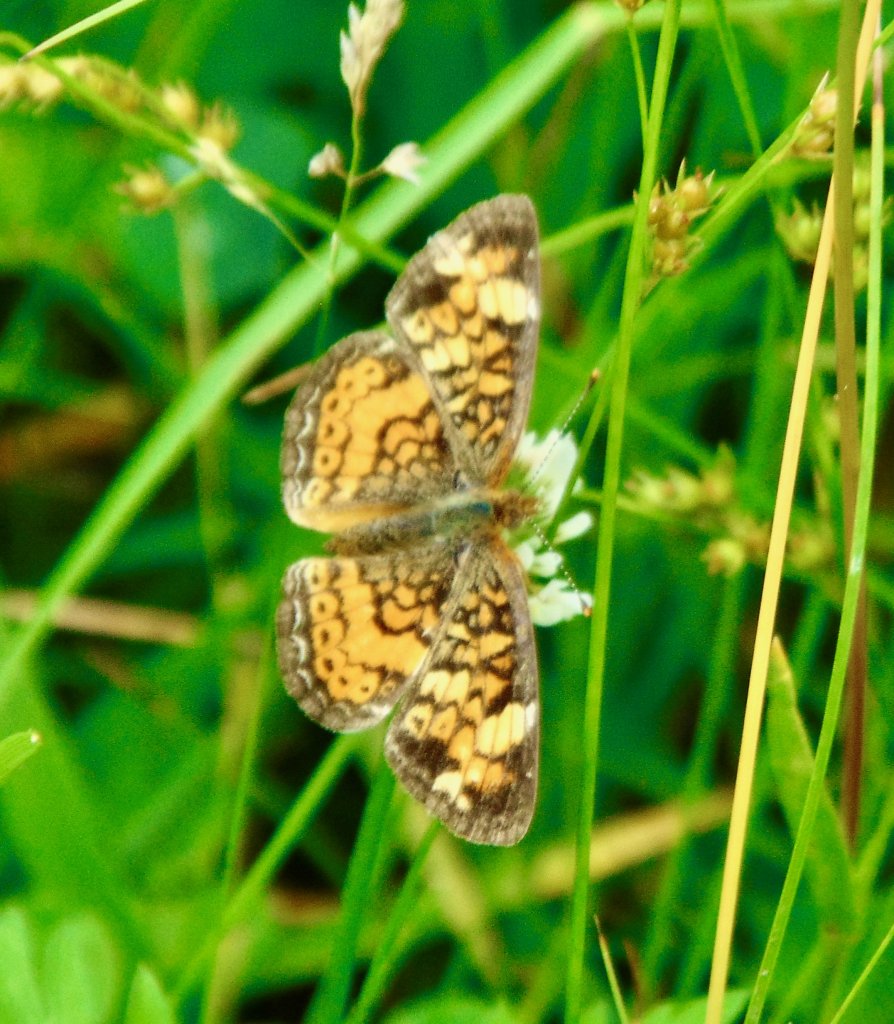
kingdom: Animalia
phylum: Arthropoda
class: Insecta
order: Lepidoptera
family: Nymphalidae
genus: Phyciodes
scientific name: Phyciodes tharos
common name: Pearl Crescent
